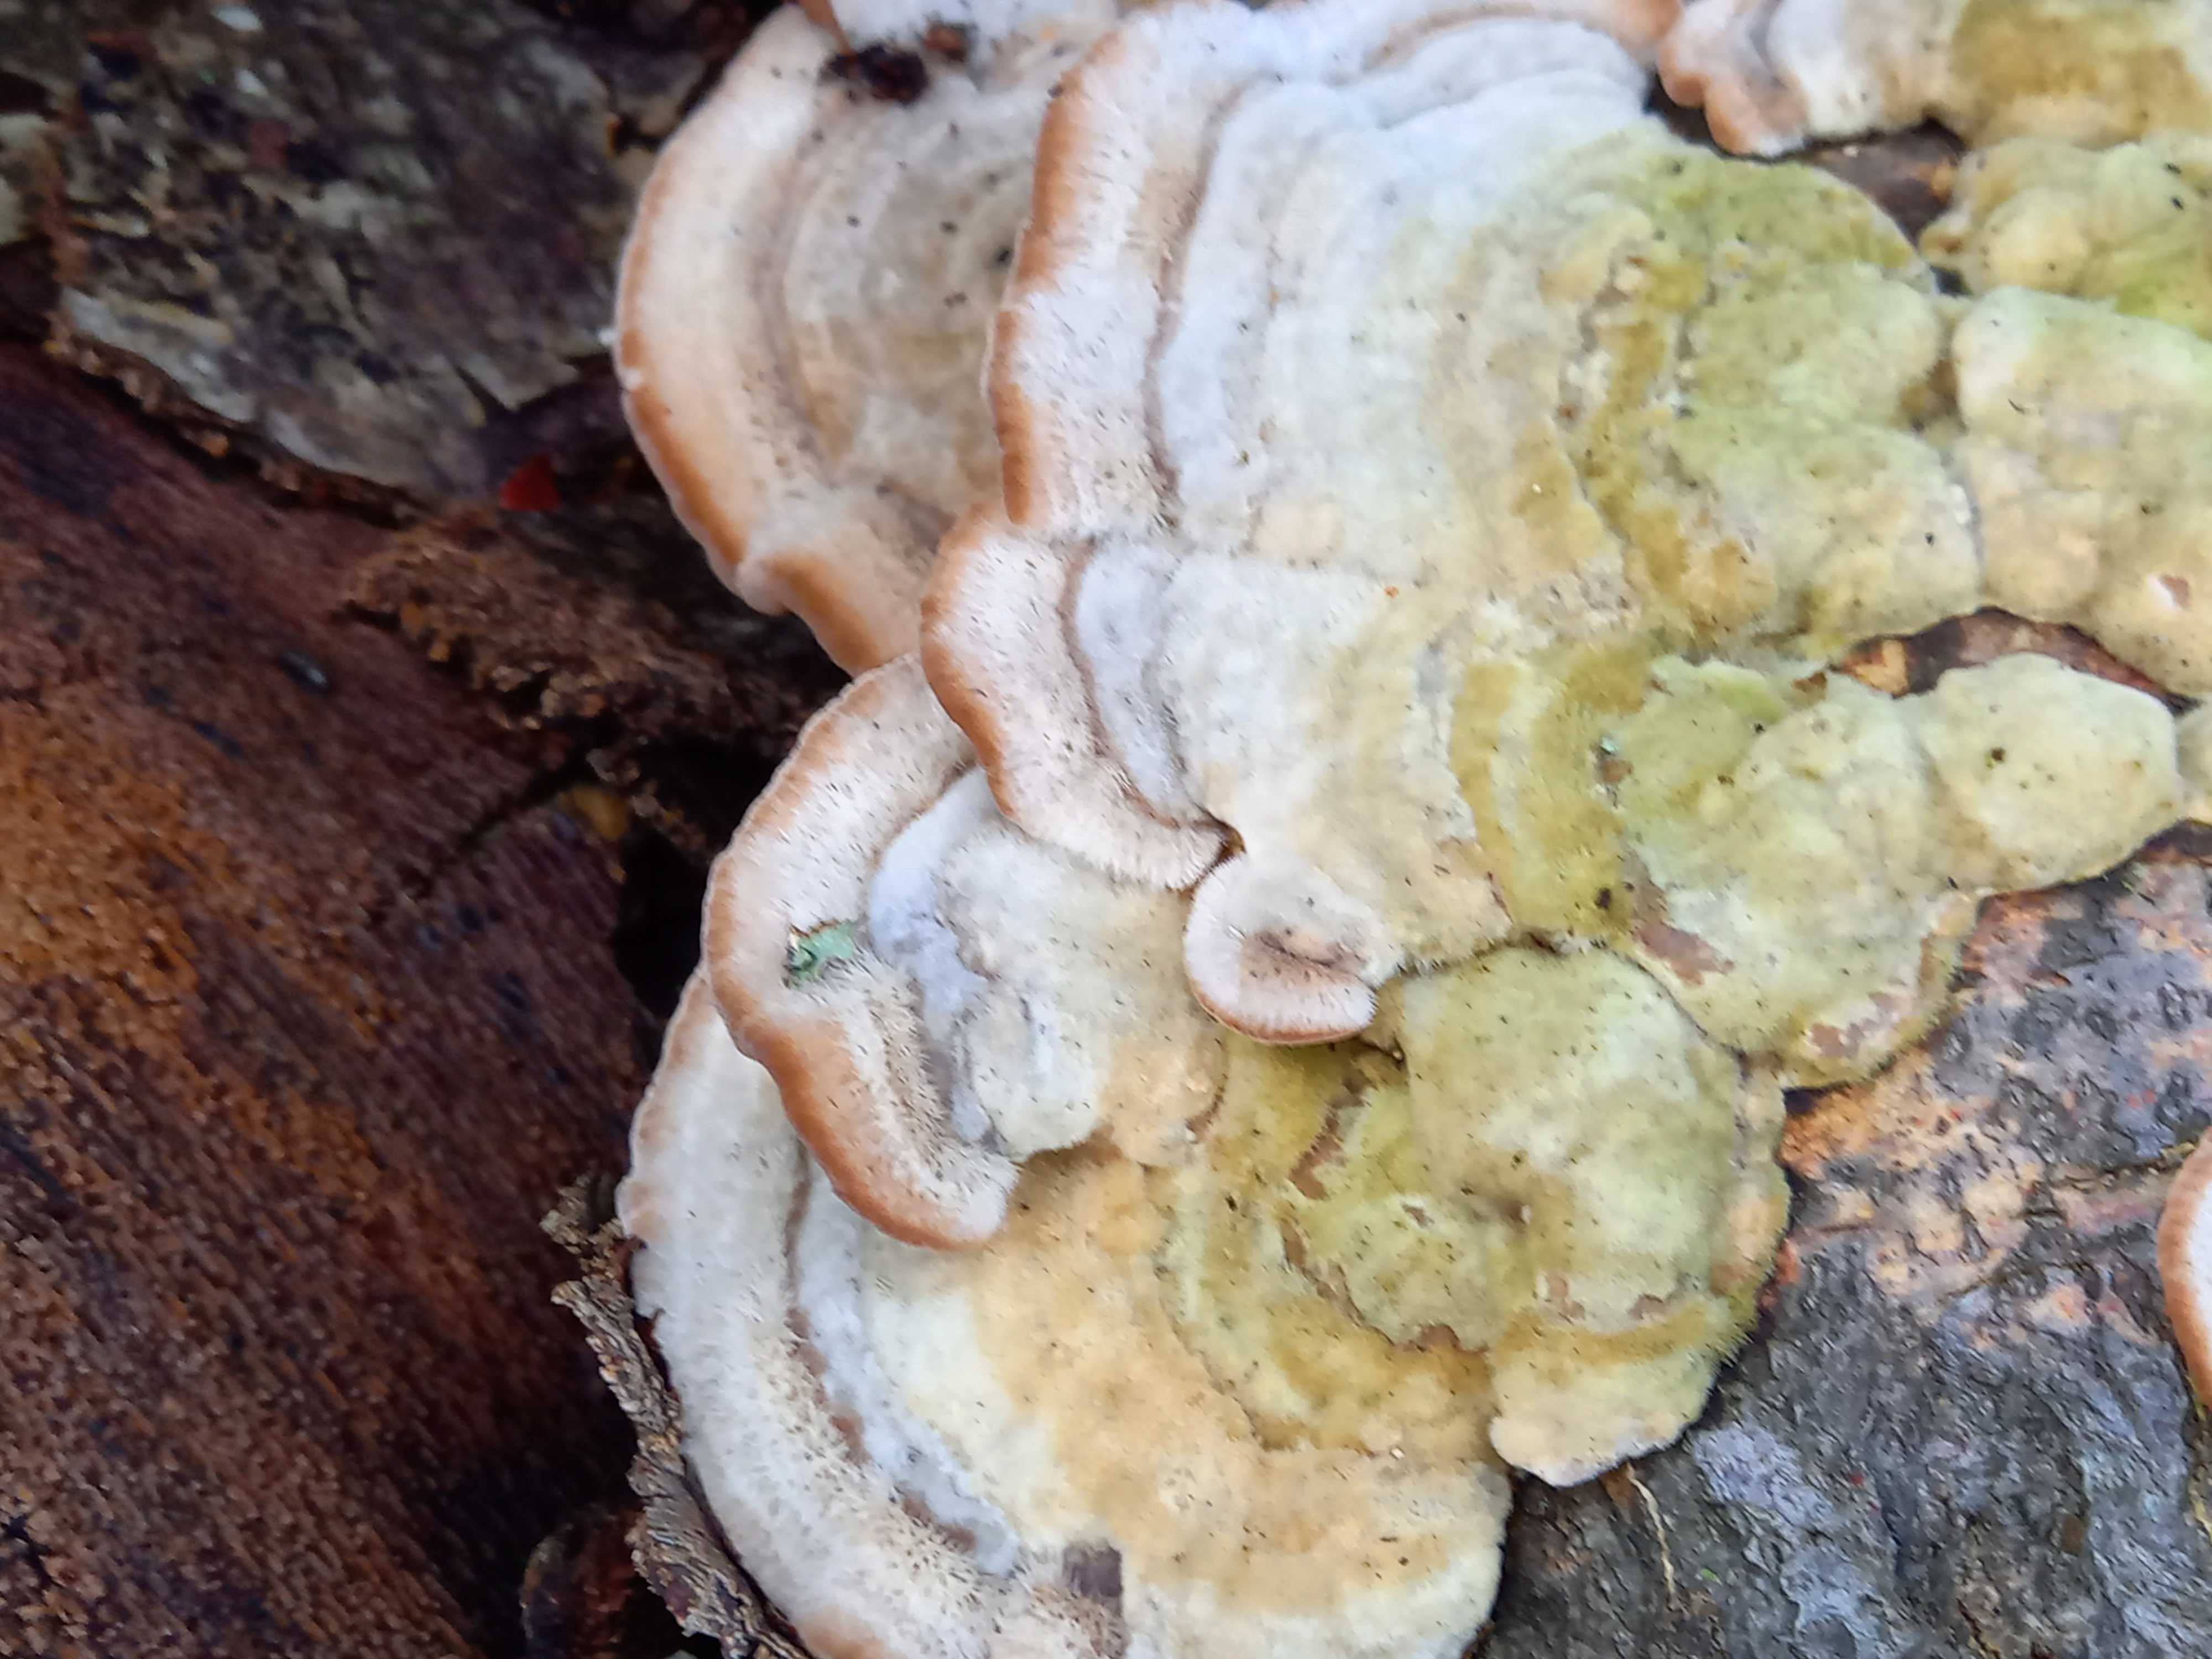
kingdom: Fungi
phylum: Basidiomycota
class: Agaricomycetes
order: Polyporales
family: Polyporaceae
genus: Trametes
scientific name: Trametes hirsuta
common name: håret læderporesvamp
